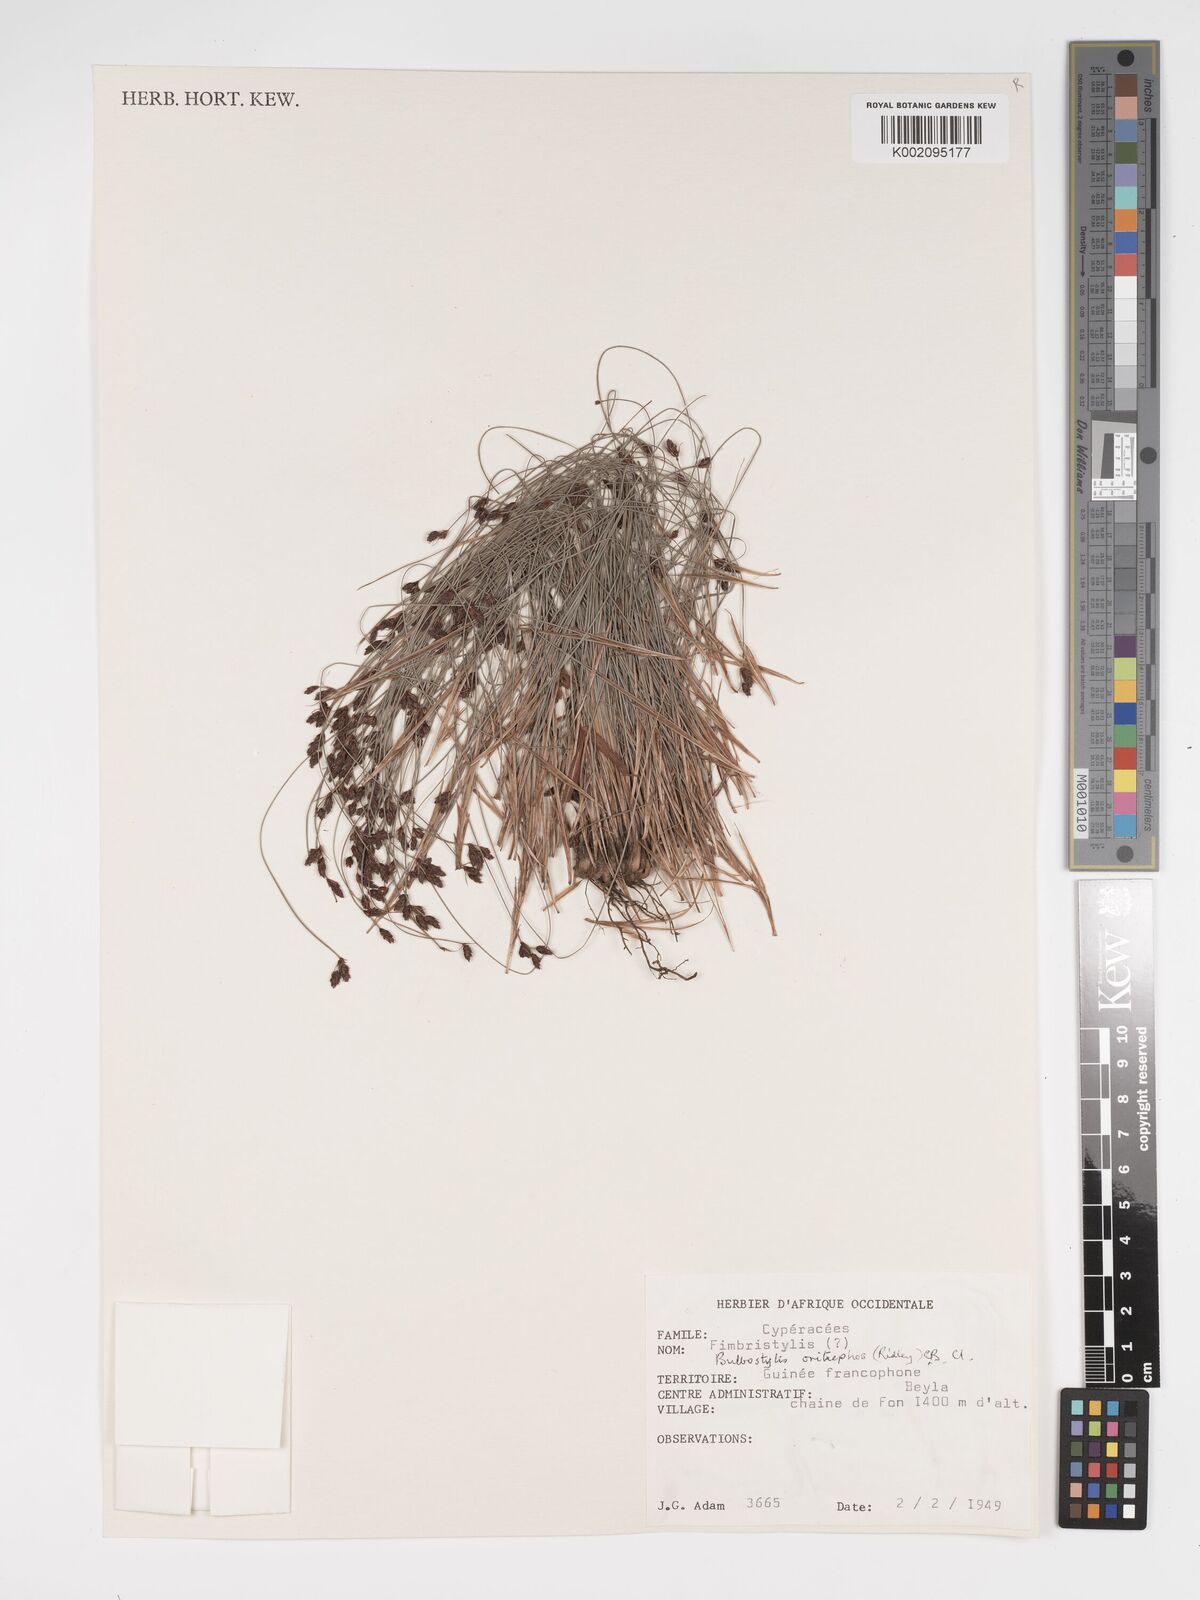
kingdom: Plantae
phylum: Tracheophyta
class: Liliopsida
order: Poales
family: Cyperaceae
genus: Bulbostylis
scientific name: Bulbostylis oritrephes
